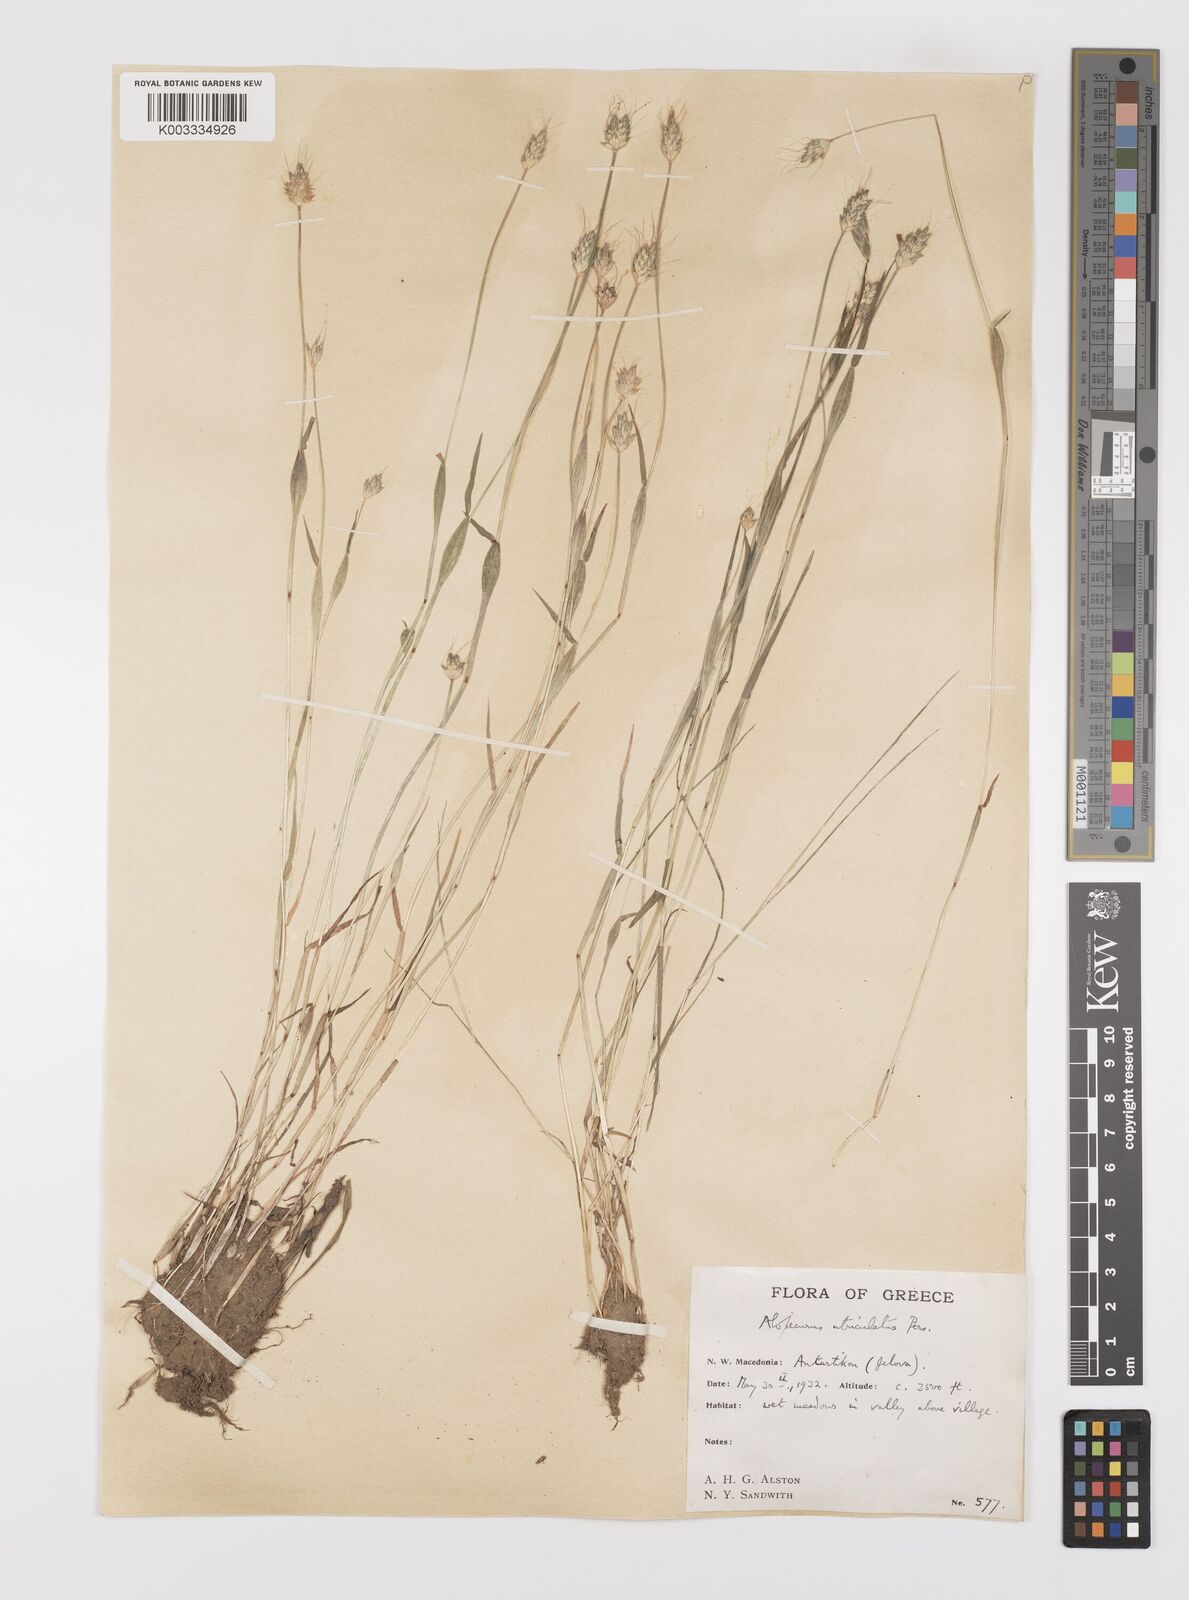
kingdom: Plantae
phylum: Tracheophyta
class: Liliopsida
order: Poales
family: Poaceae
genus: Alopecurus
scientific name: Alopecurus rendlei
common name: Rendle's meadow foxtail
